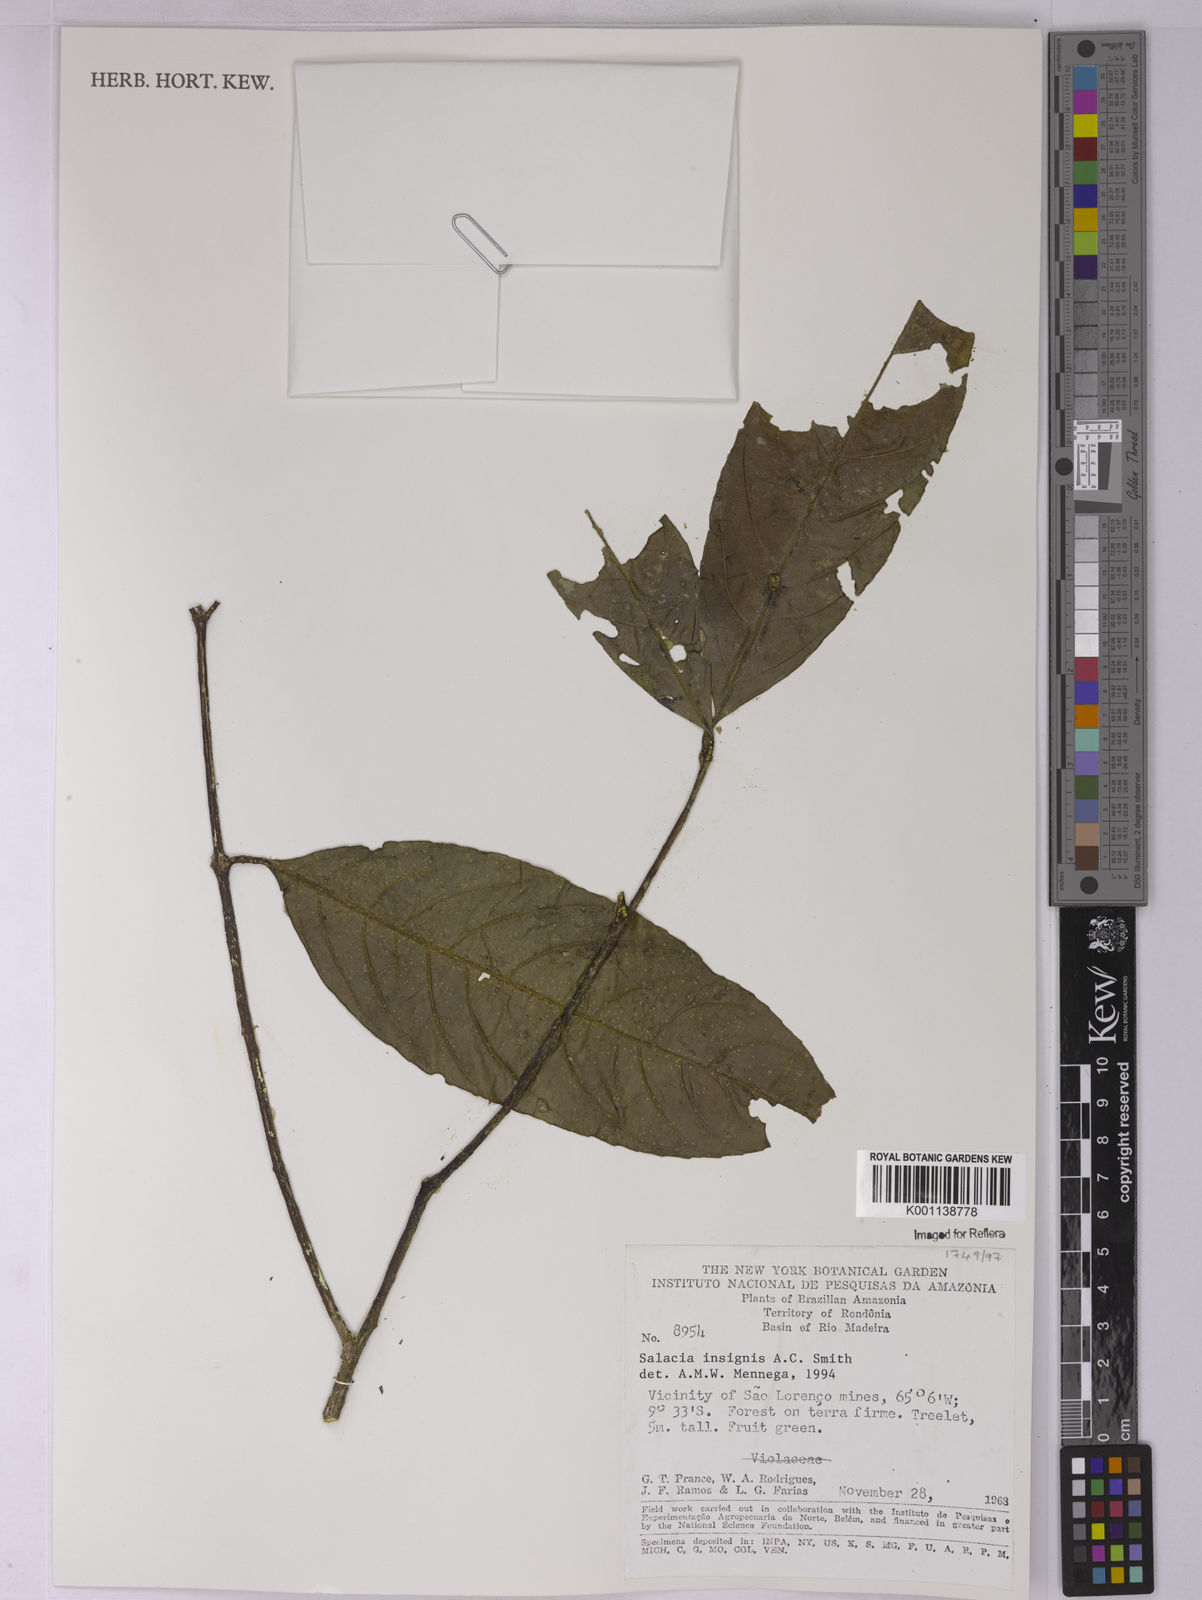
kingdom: Plantae
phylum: Tracheophyta
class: Magnoliopsida
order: Celastrales
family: Celastraceae
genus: Salacia
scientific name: Salacia insignis
